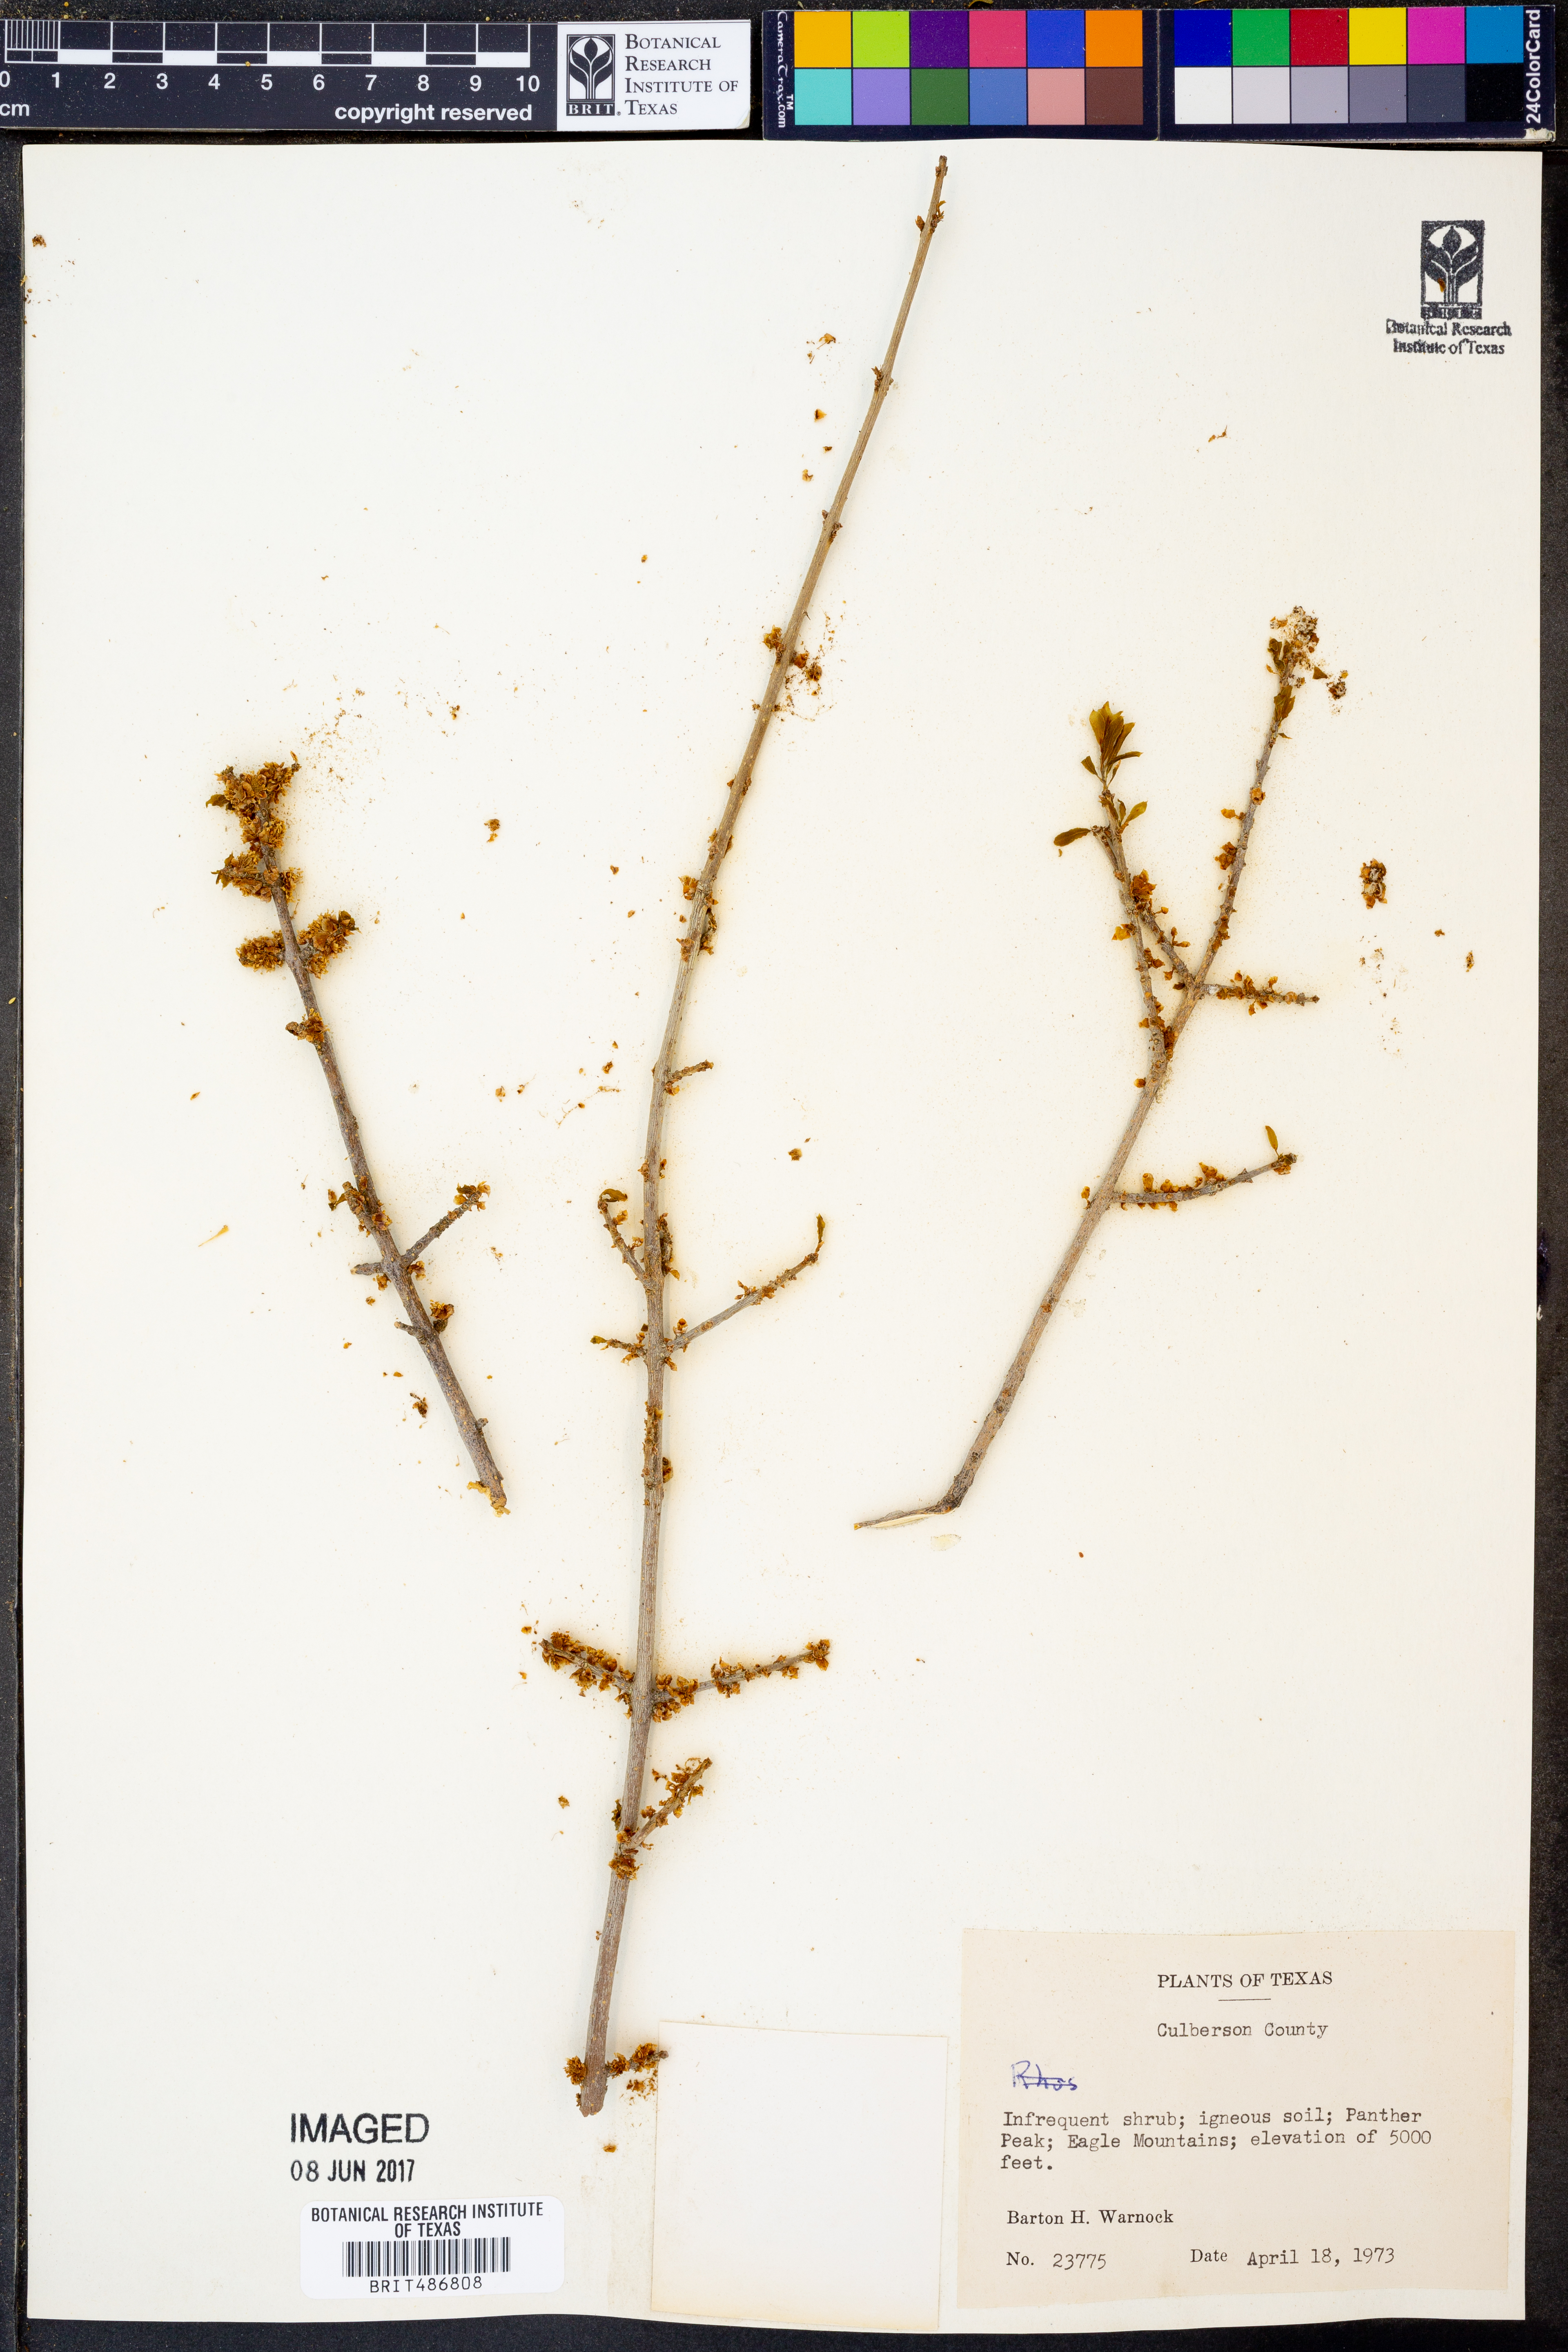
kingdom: Plantae
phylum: Tracheophyta
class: Magnoliopsida
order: Sapindales
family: Anacardiaceae
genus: Rhus
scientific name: Rhus
